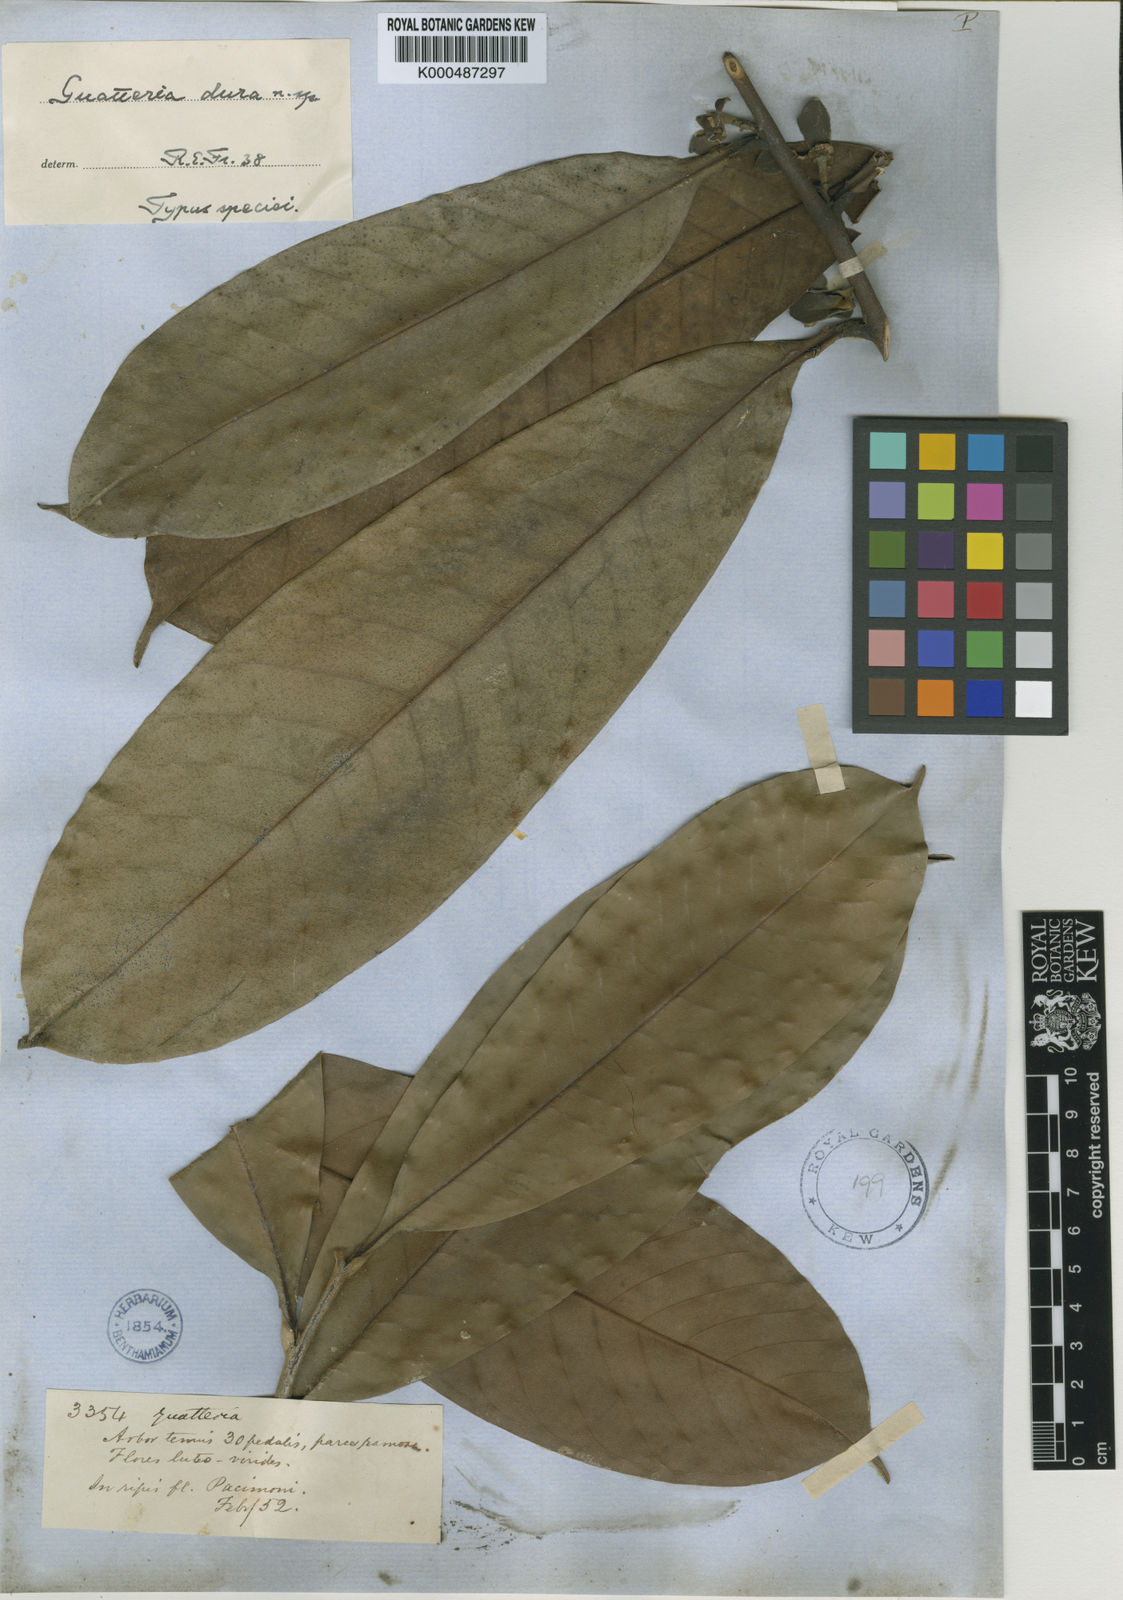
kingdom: Plantae
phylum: Tracheophyta
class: Magnoliopsida
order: Magnoliales
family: Annonaceae
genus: Guatteria
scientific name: Guatteria dura
